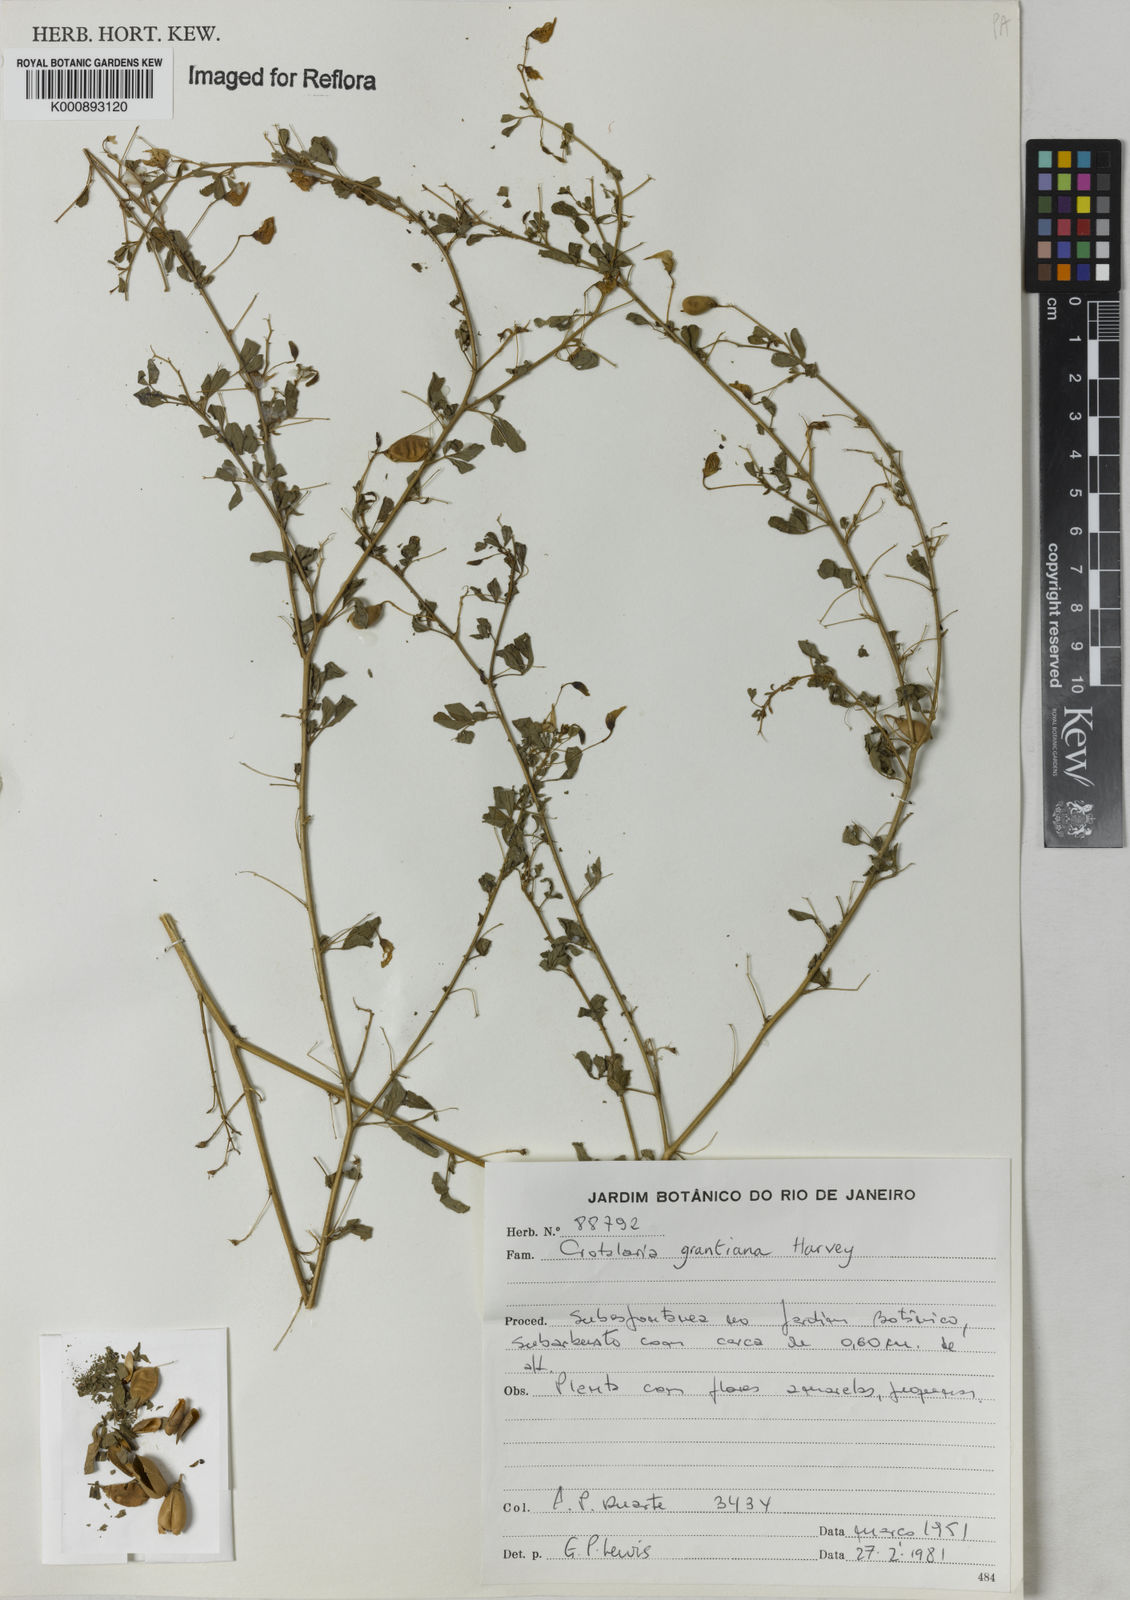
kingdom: Plantae
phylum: Tracheophyta
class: Magnoliopsida
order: Fabales
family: Fabaceae
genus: Crotalaria
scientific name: Crotalaria virgulata
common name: Thicket rattlebox
